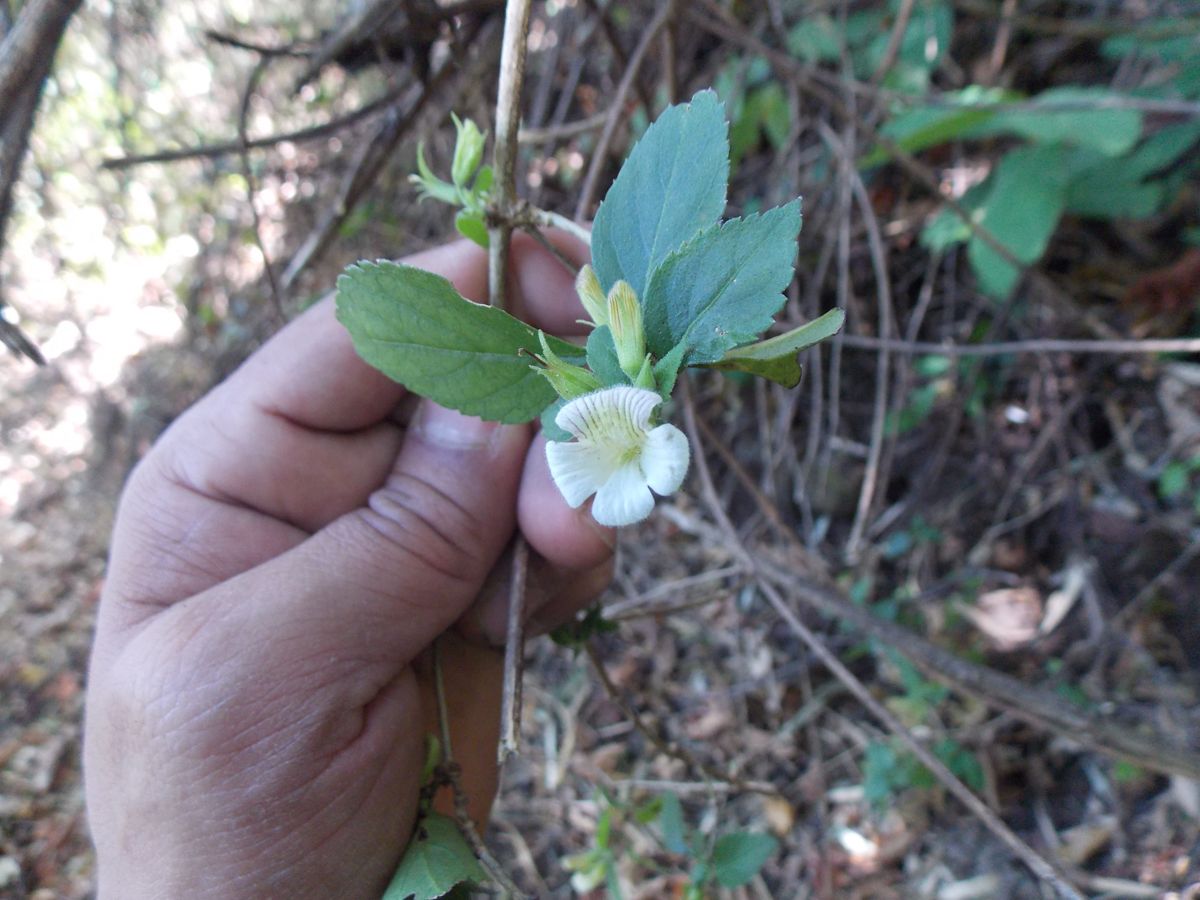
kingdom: Plantae
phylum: Tracheophyta
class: Magnoliopsida
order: Lamiales
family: Plantaginaceae
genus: Stemodia
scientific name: Stemodia fruticosa
